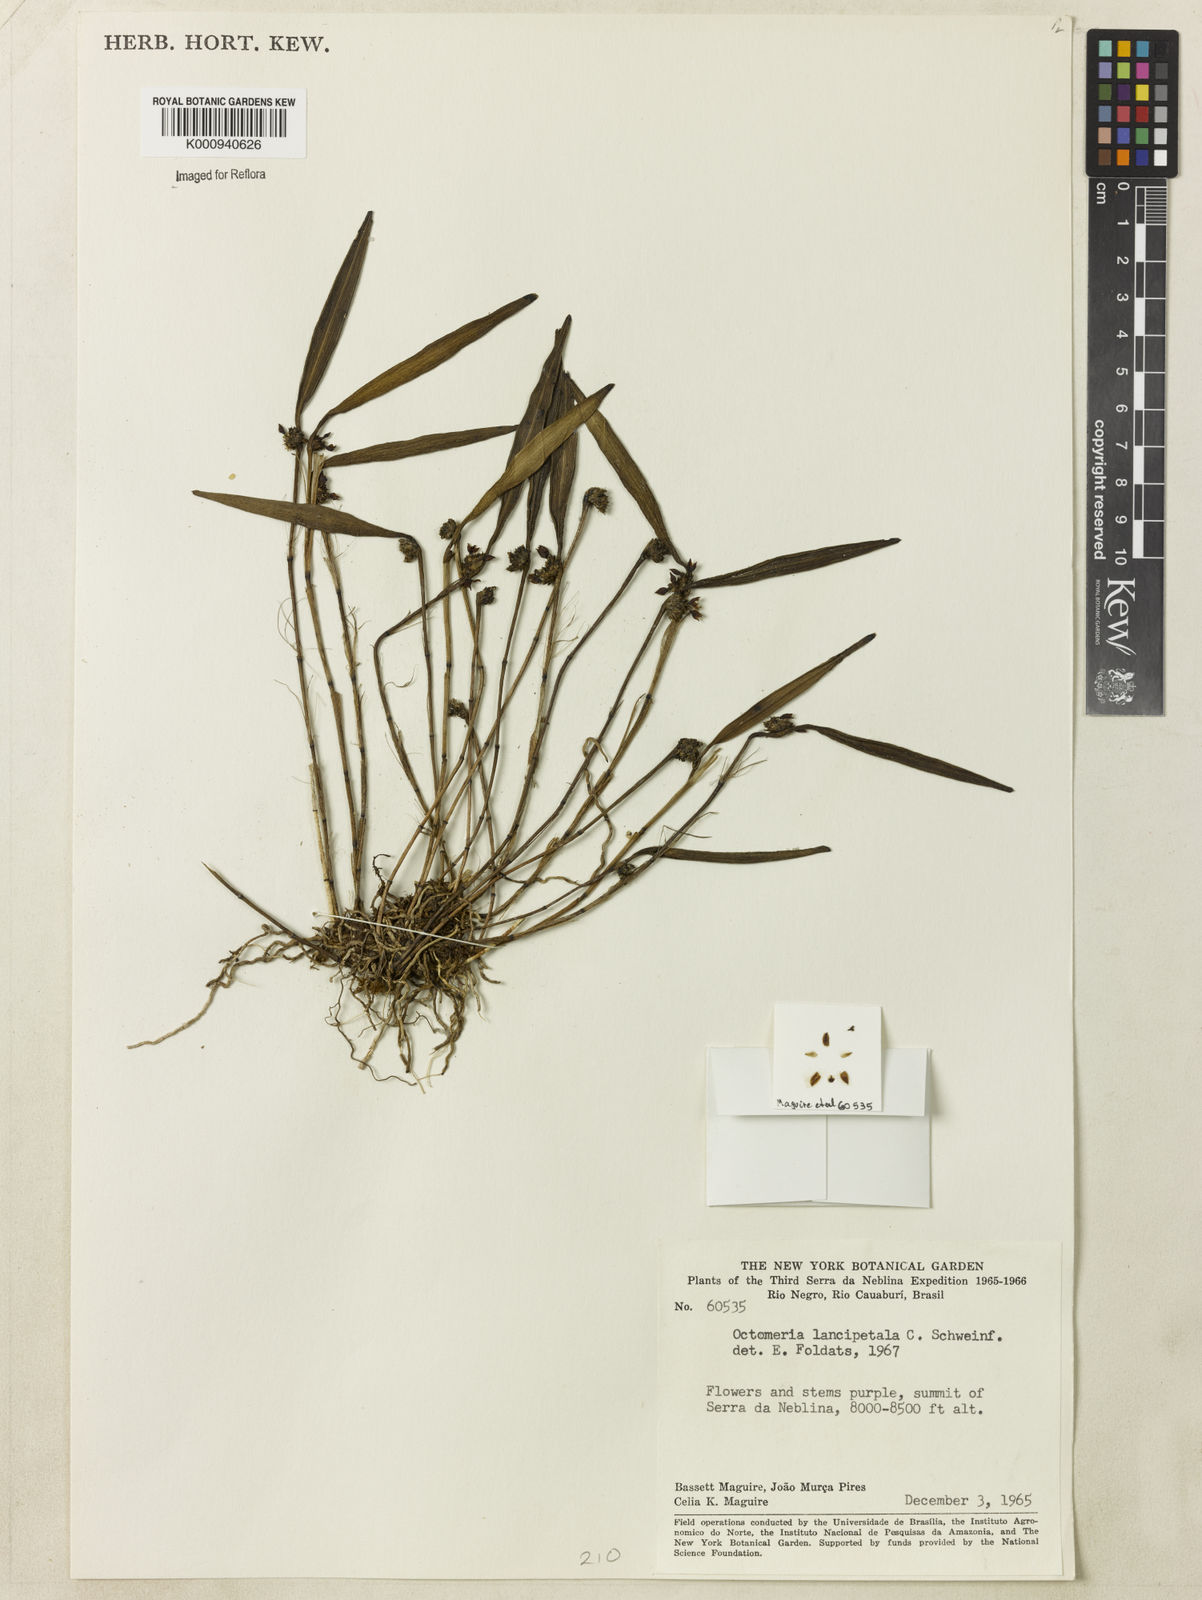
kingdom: Plantae
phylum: Tracheophyta
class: Liliopsida
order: Asparagales
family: Orchidaceae
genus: Octomeria
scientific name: Octomeria lancipetala
